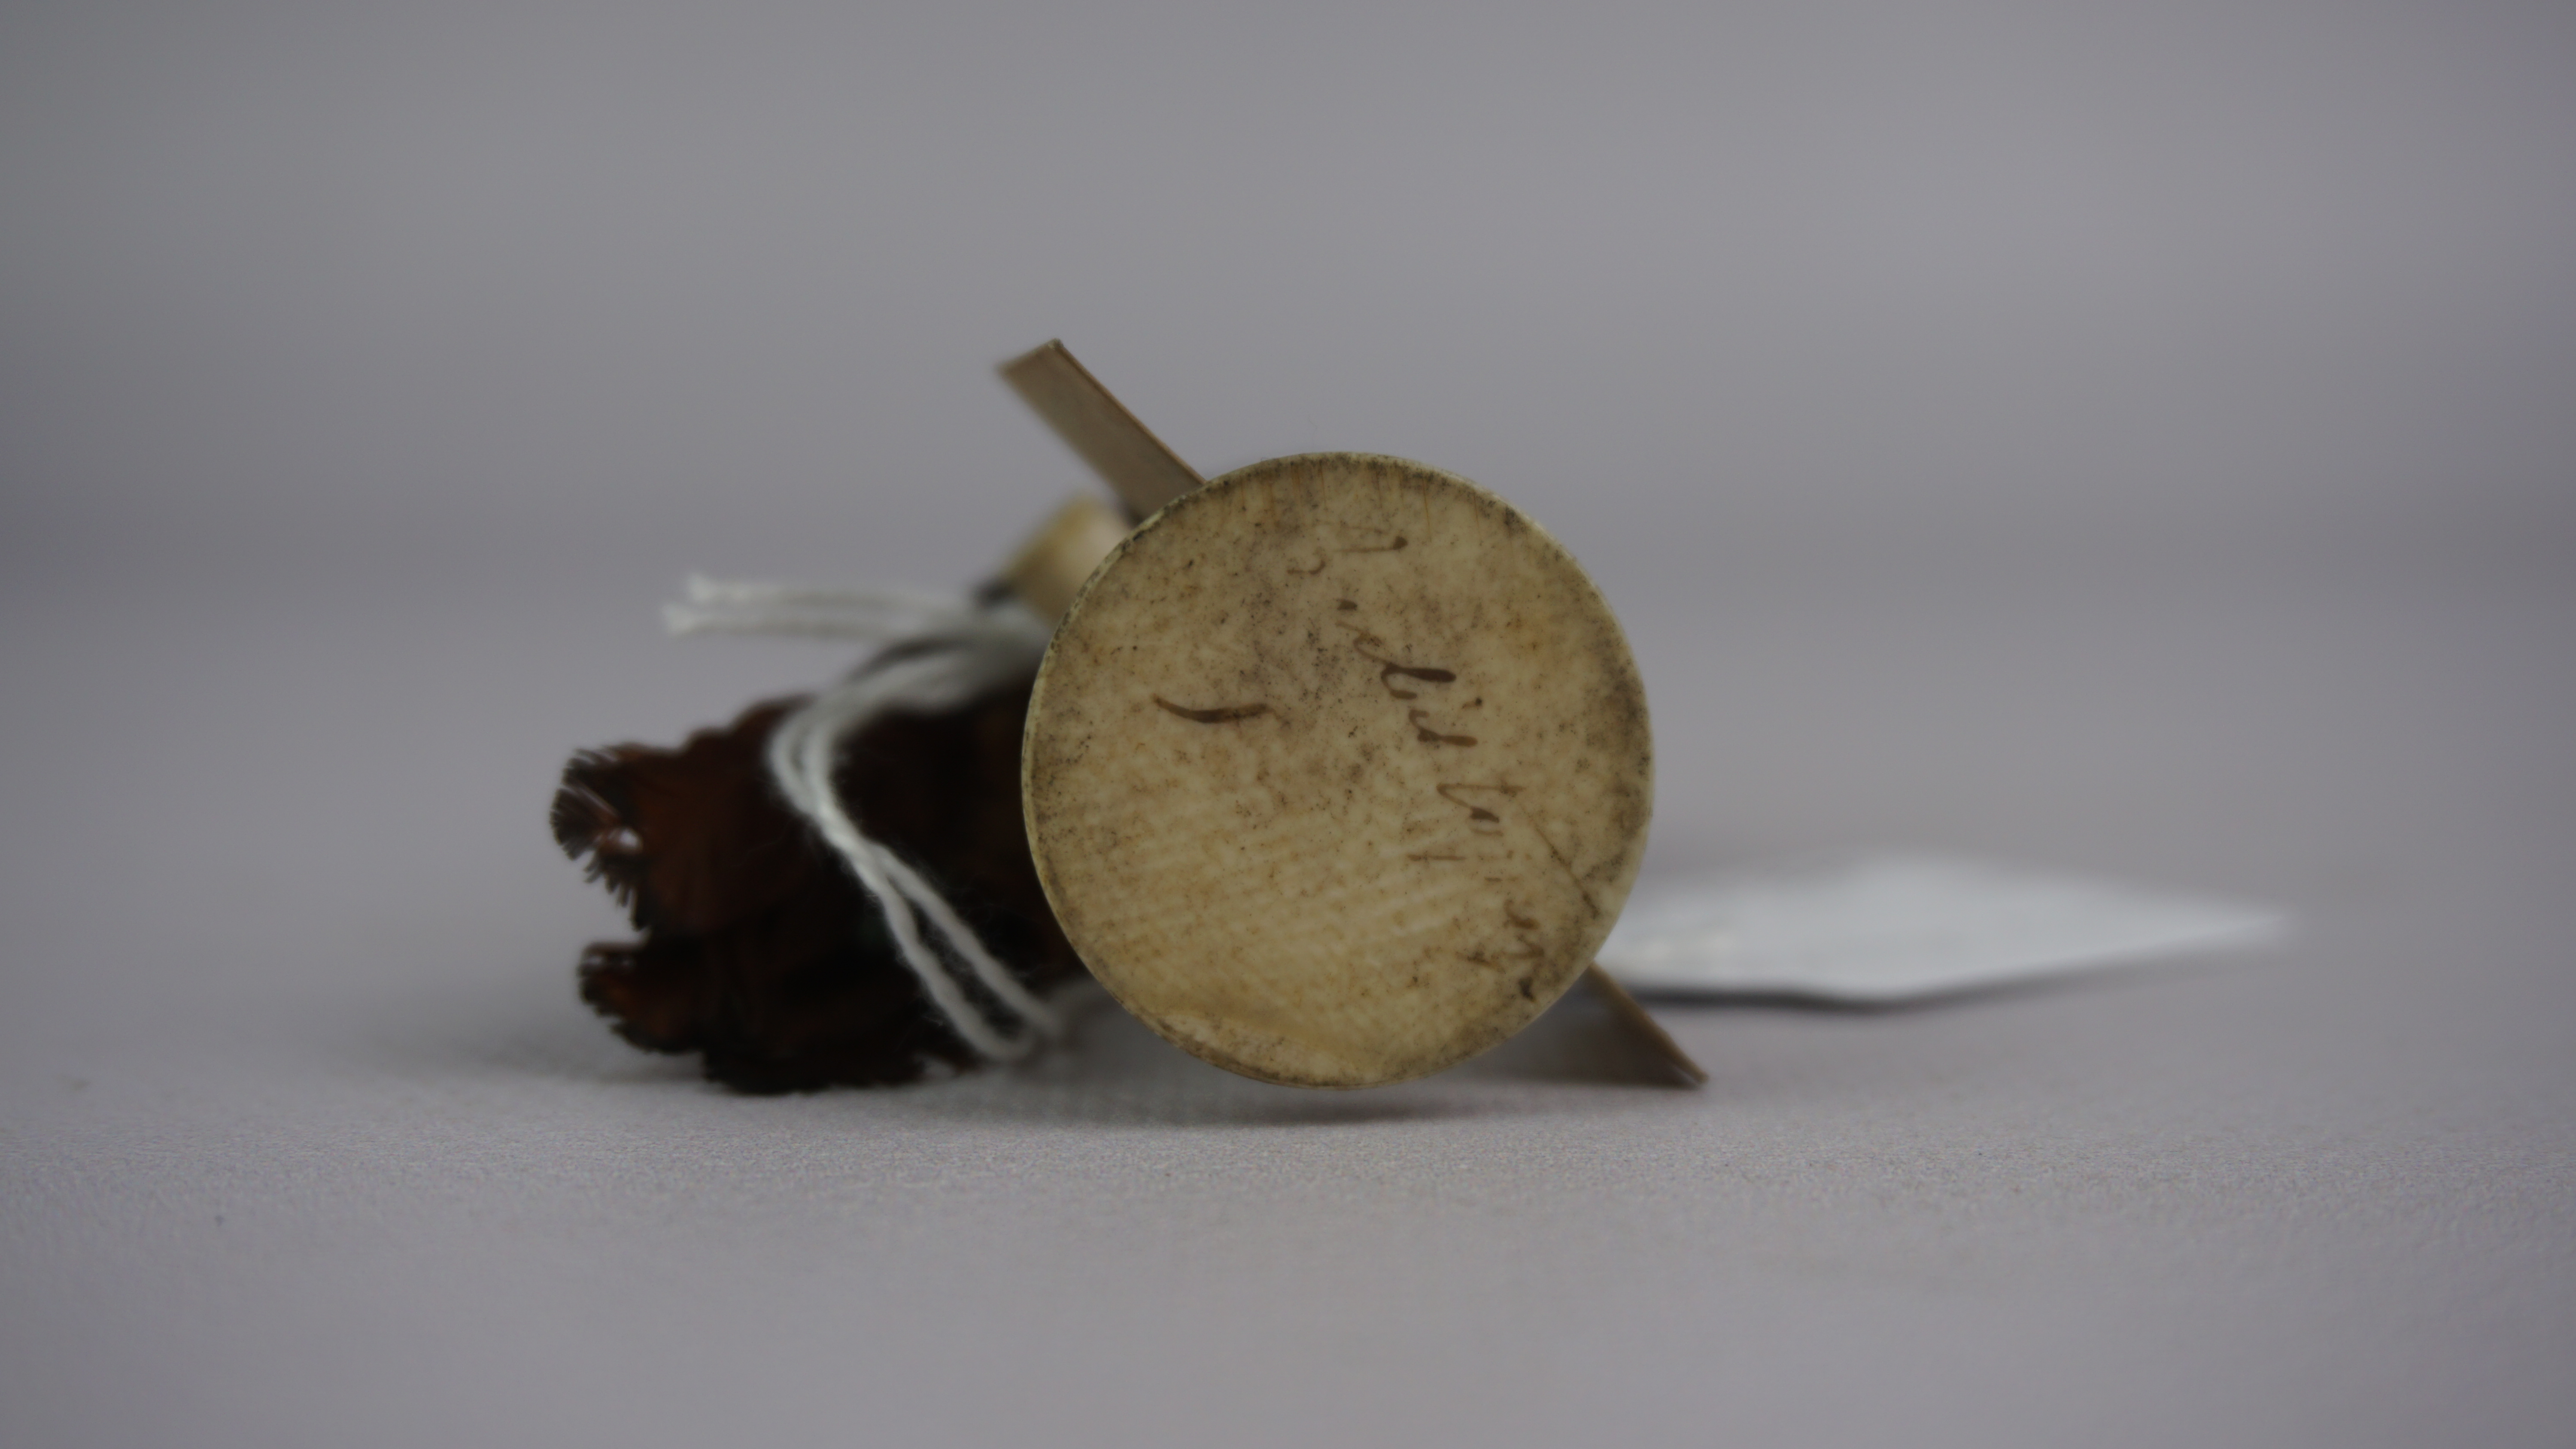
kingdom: Animalia
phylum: Chordata
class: Aves
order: Apodiformes
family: Trochilidae
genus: Chrysolampis
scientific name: Chrysolampis mosquitus
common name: Ruby-topaz hummingbird
